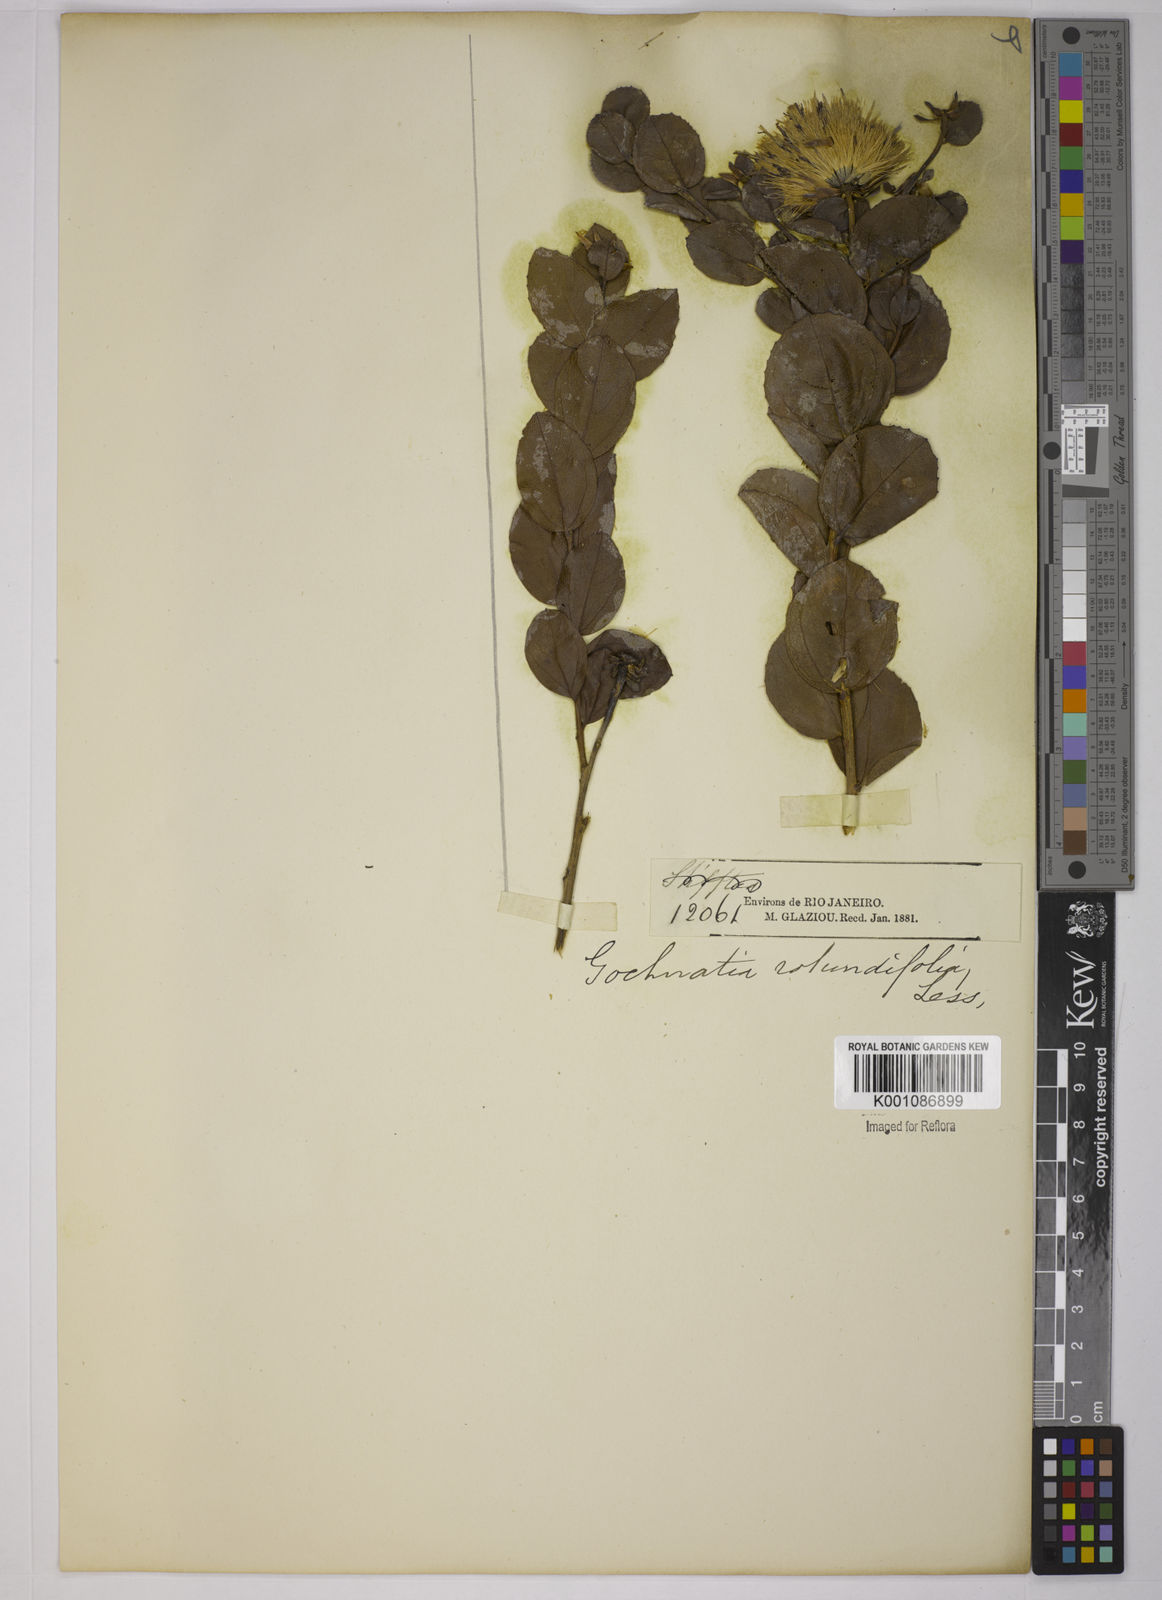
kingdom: Plantae
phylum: Tracheophyta
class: Magnoliopsida
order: Asterales
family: Asteraceae
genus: Vickia
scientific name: Vickia rotundifolia
